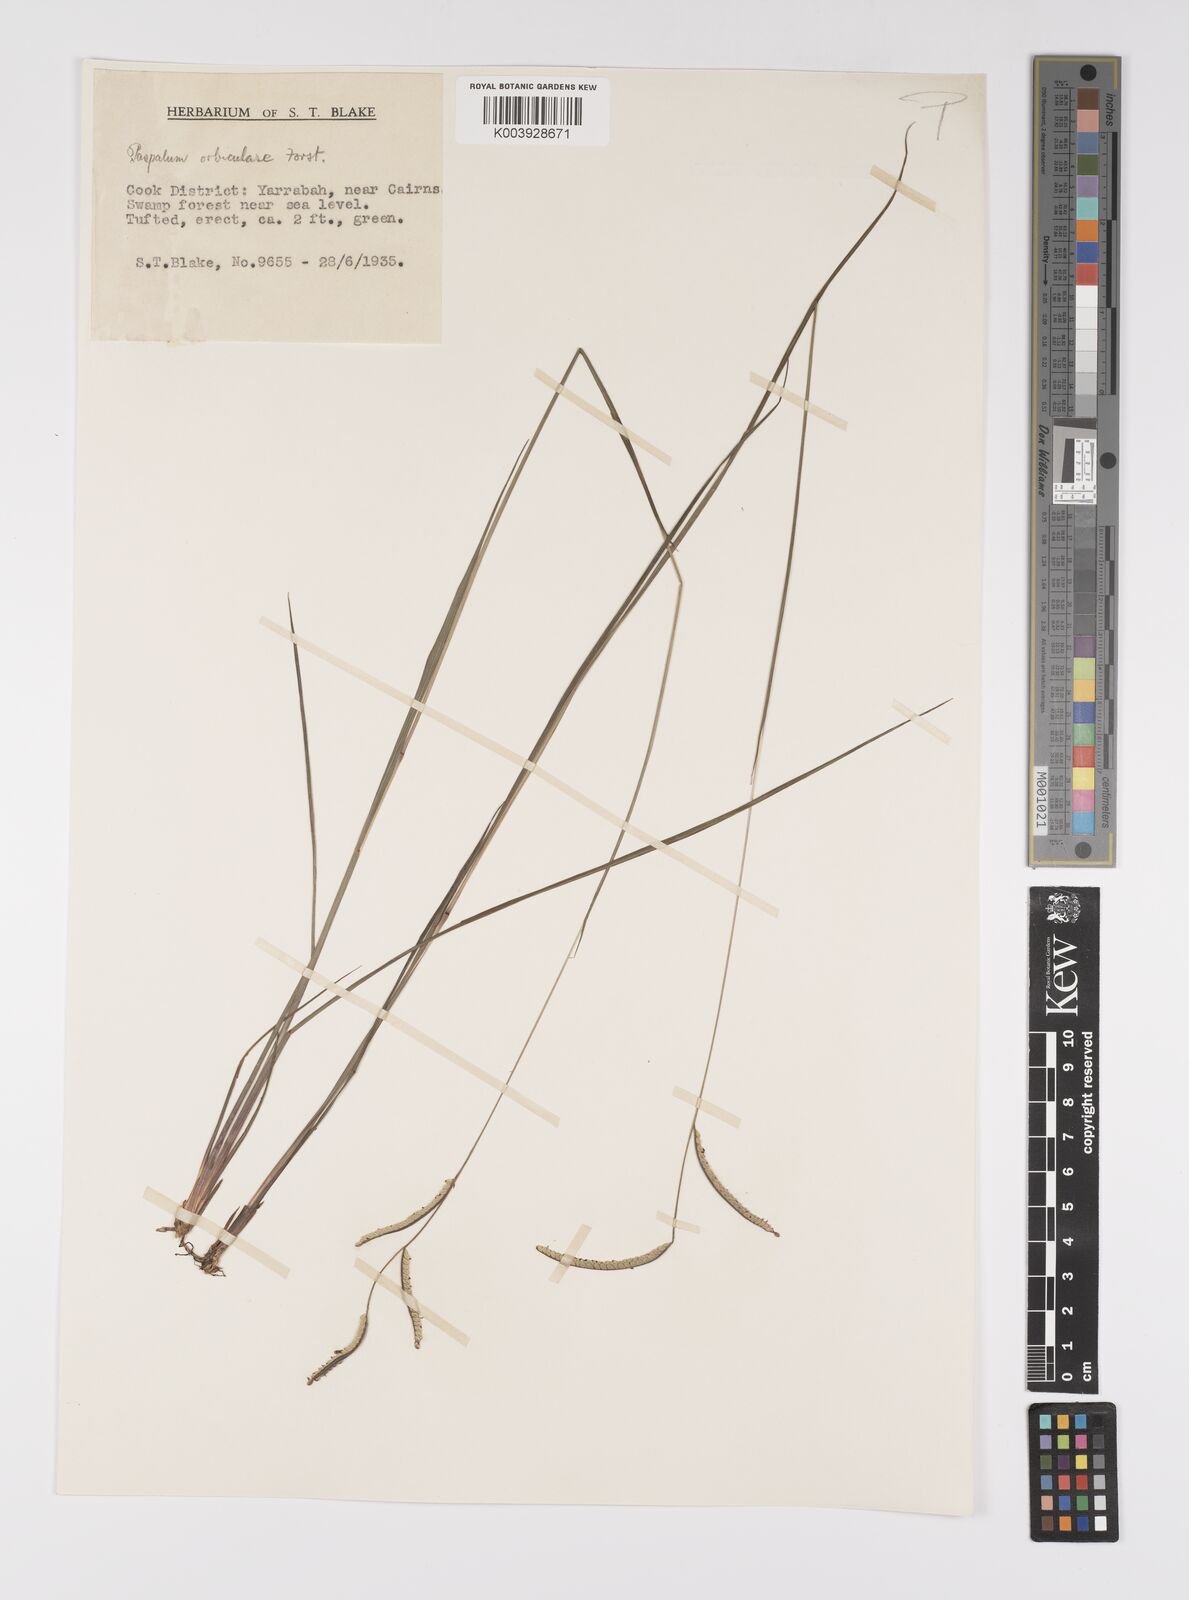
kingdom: Plantae
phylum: Tracheophyta
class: Liliopsida
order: Poales
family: Poaceae
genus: Paspalum
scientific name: Paspalum scrobiculatum
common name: Kodo millet
